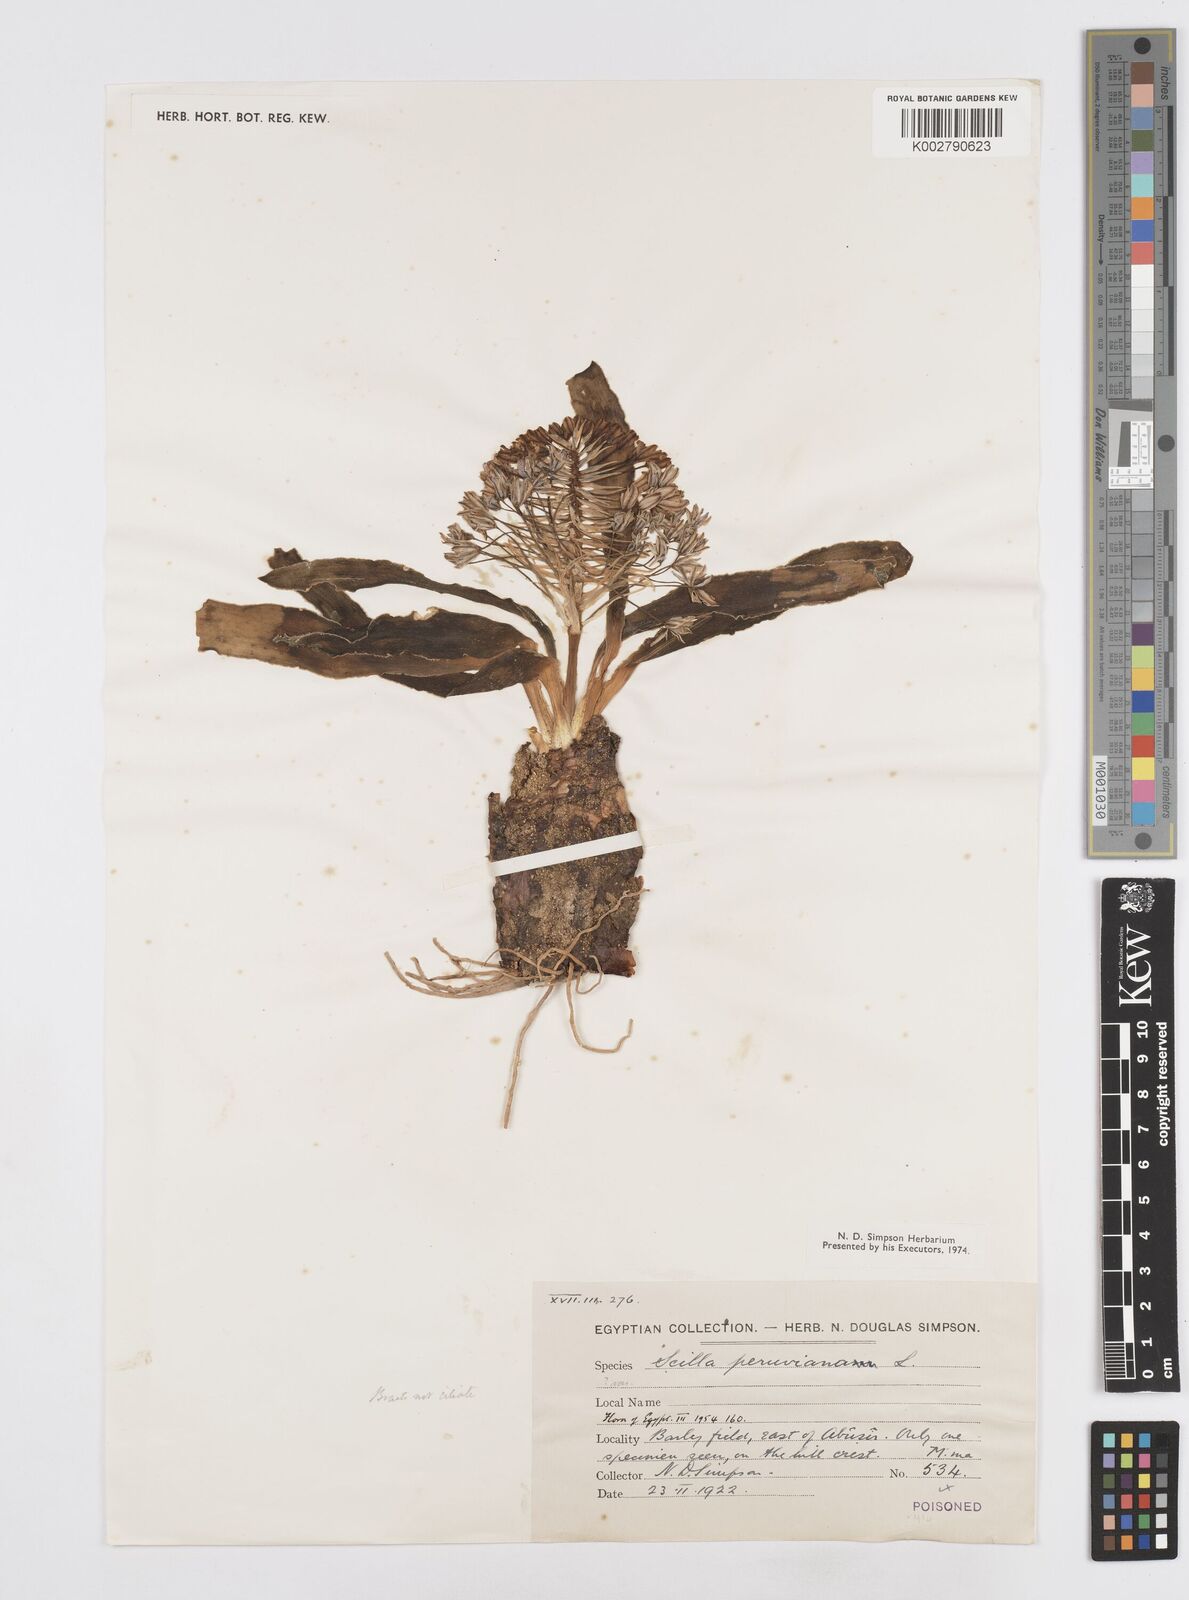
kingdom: Plantae
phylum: Tracheophyta
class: Liliopsida
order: Asparagales
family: Asparagaceae
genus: Scilla
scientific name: Scilla peruviana
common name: Portuguese squill
